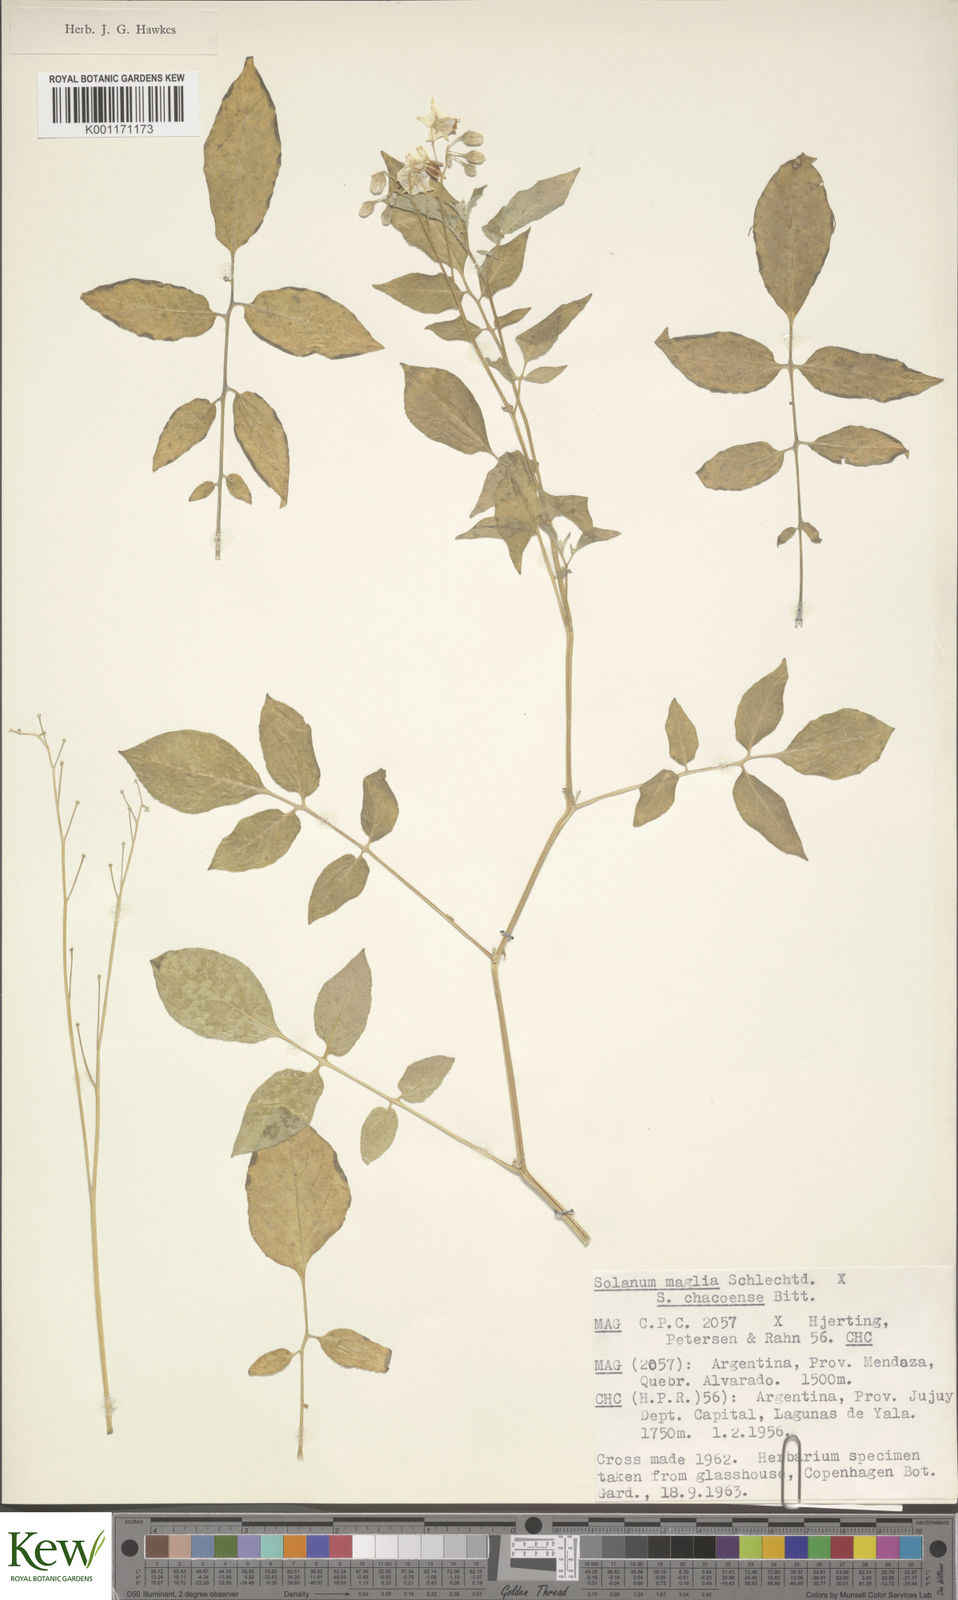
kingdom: Plantae
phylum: Tracheophyta
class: Magnoliopsida
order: Solanales
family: Solanaceae
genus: Solanum
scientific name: Solanum chacoense
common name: Chaco potato
